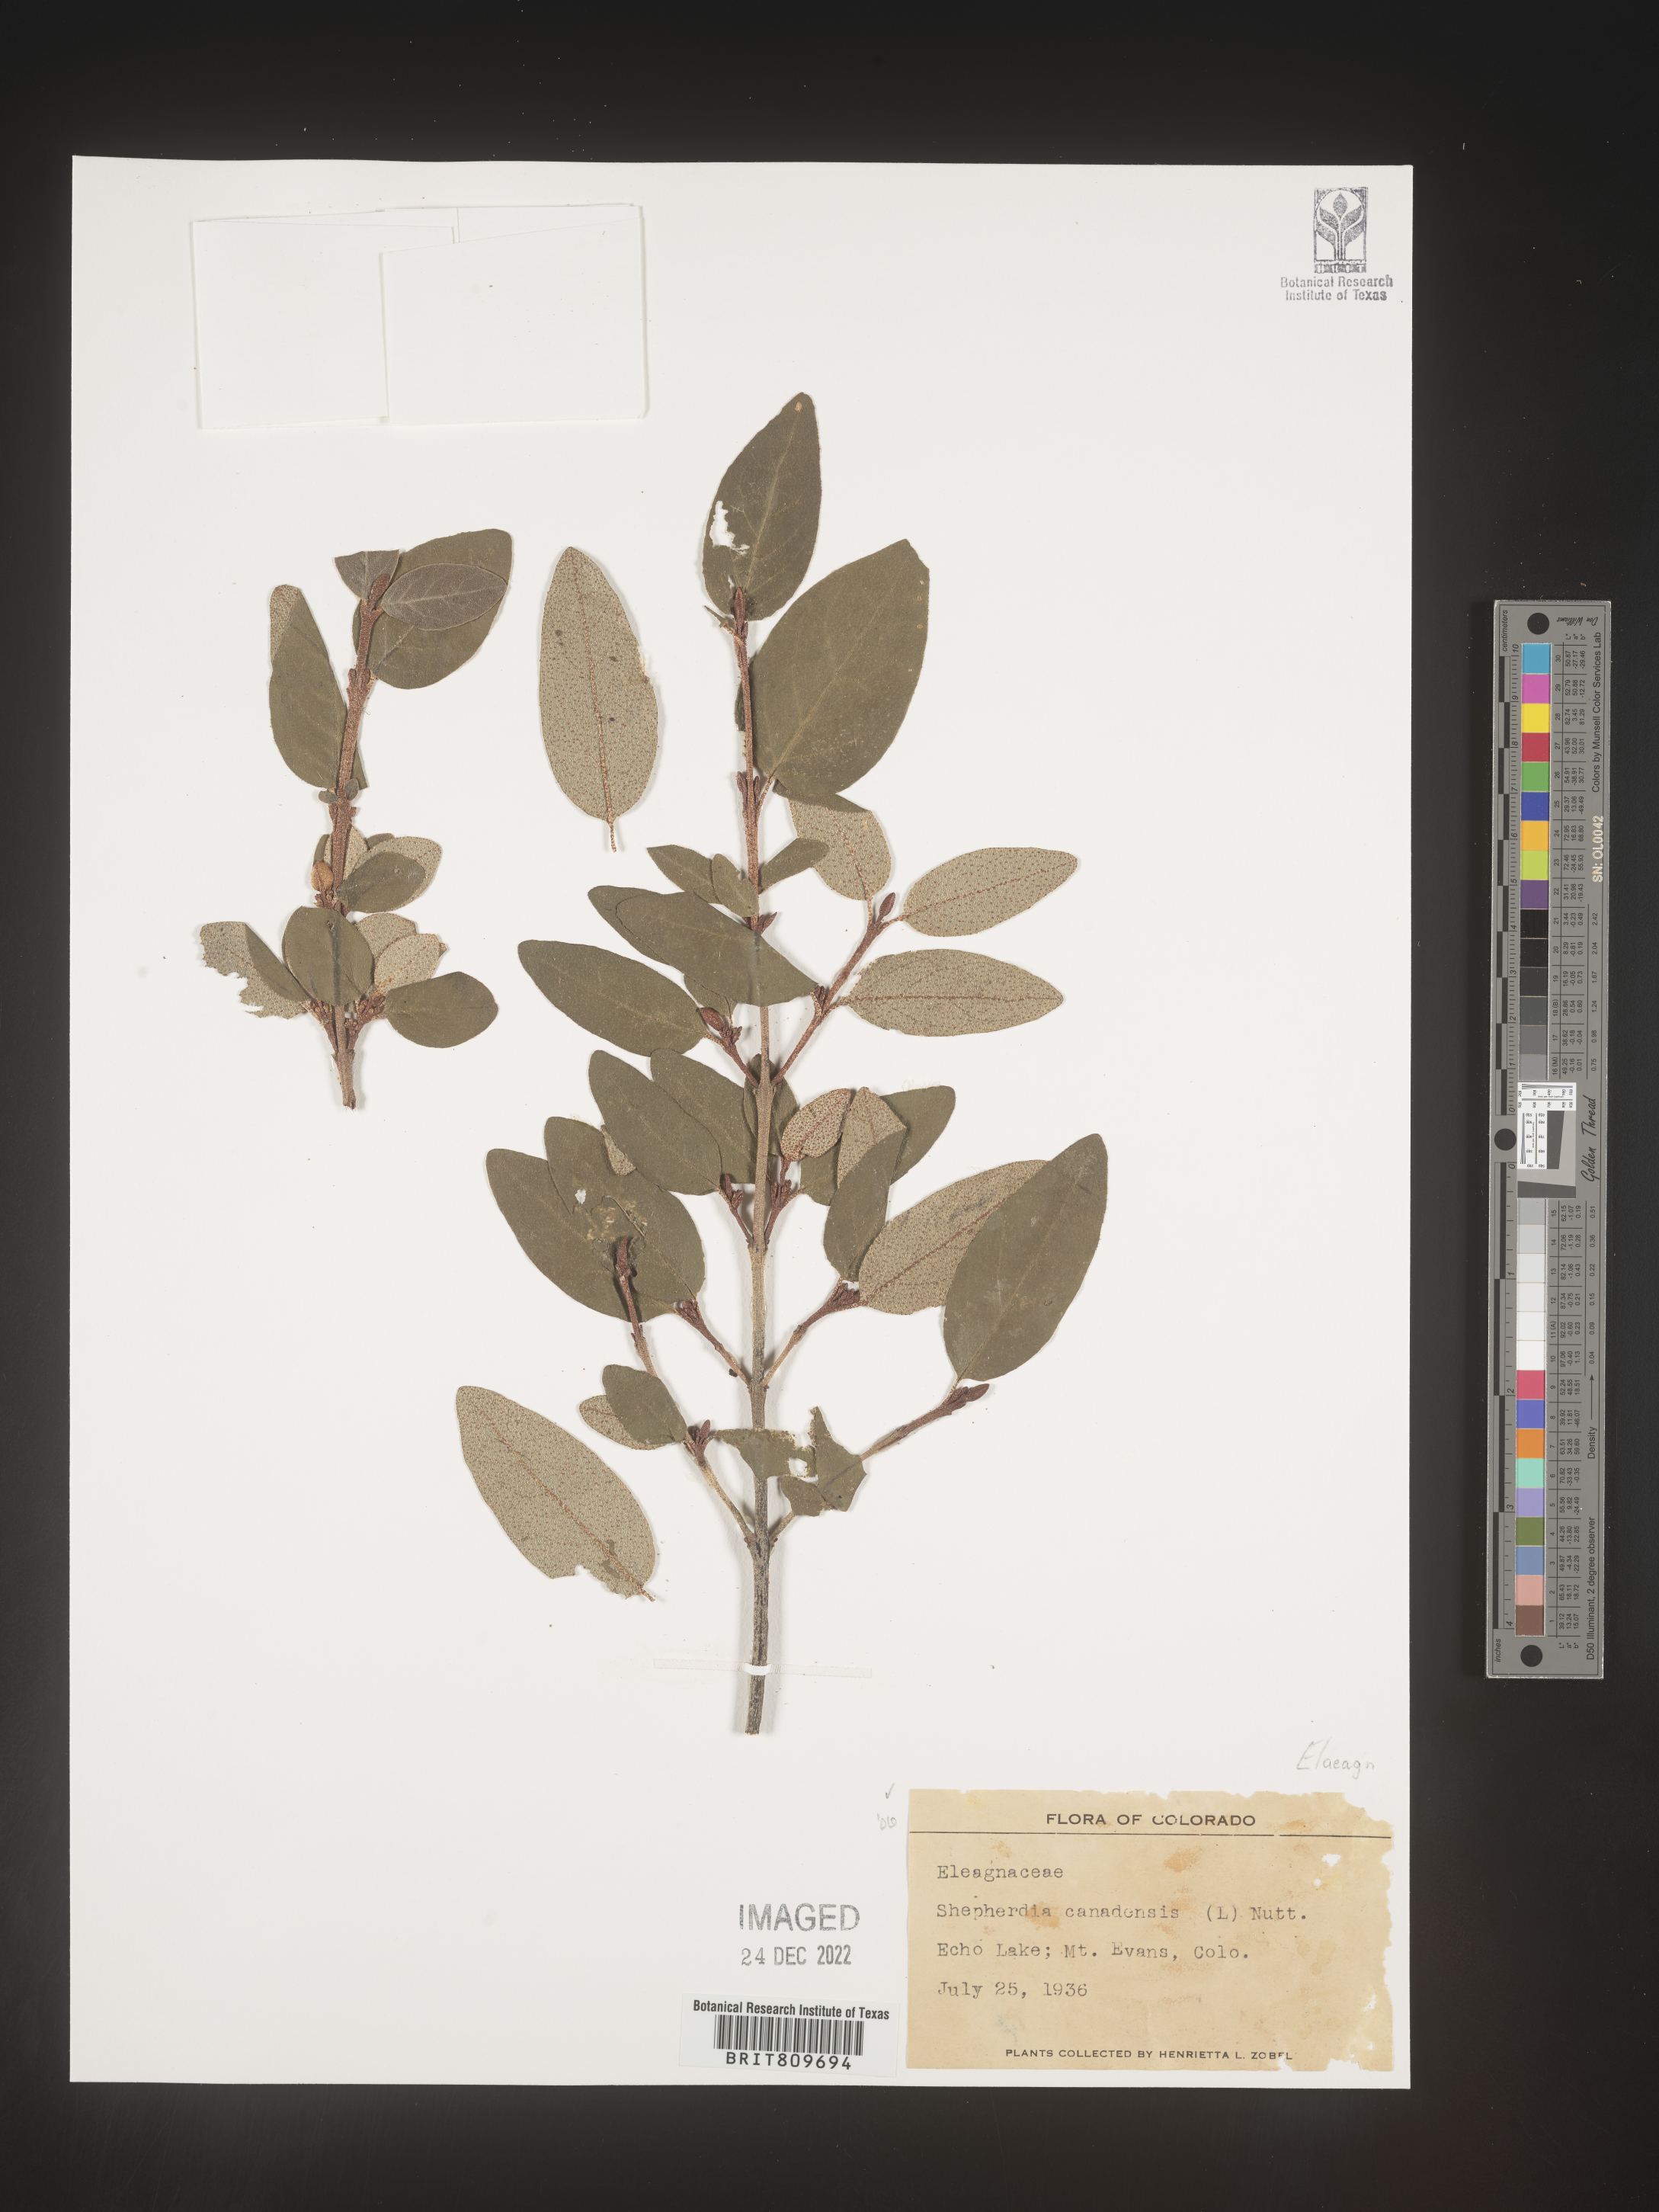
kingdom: Plantae
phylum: Tracheophyta
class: Magnoliopsida
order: Rosales
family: Elaeagnaceae
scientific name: Elaeagnaceae
